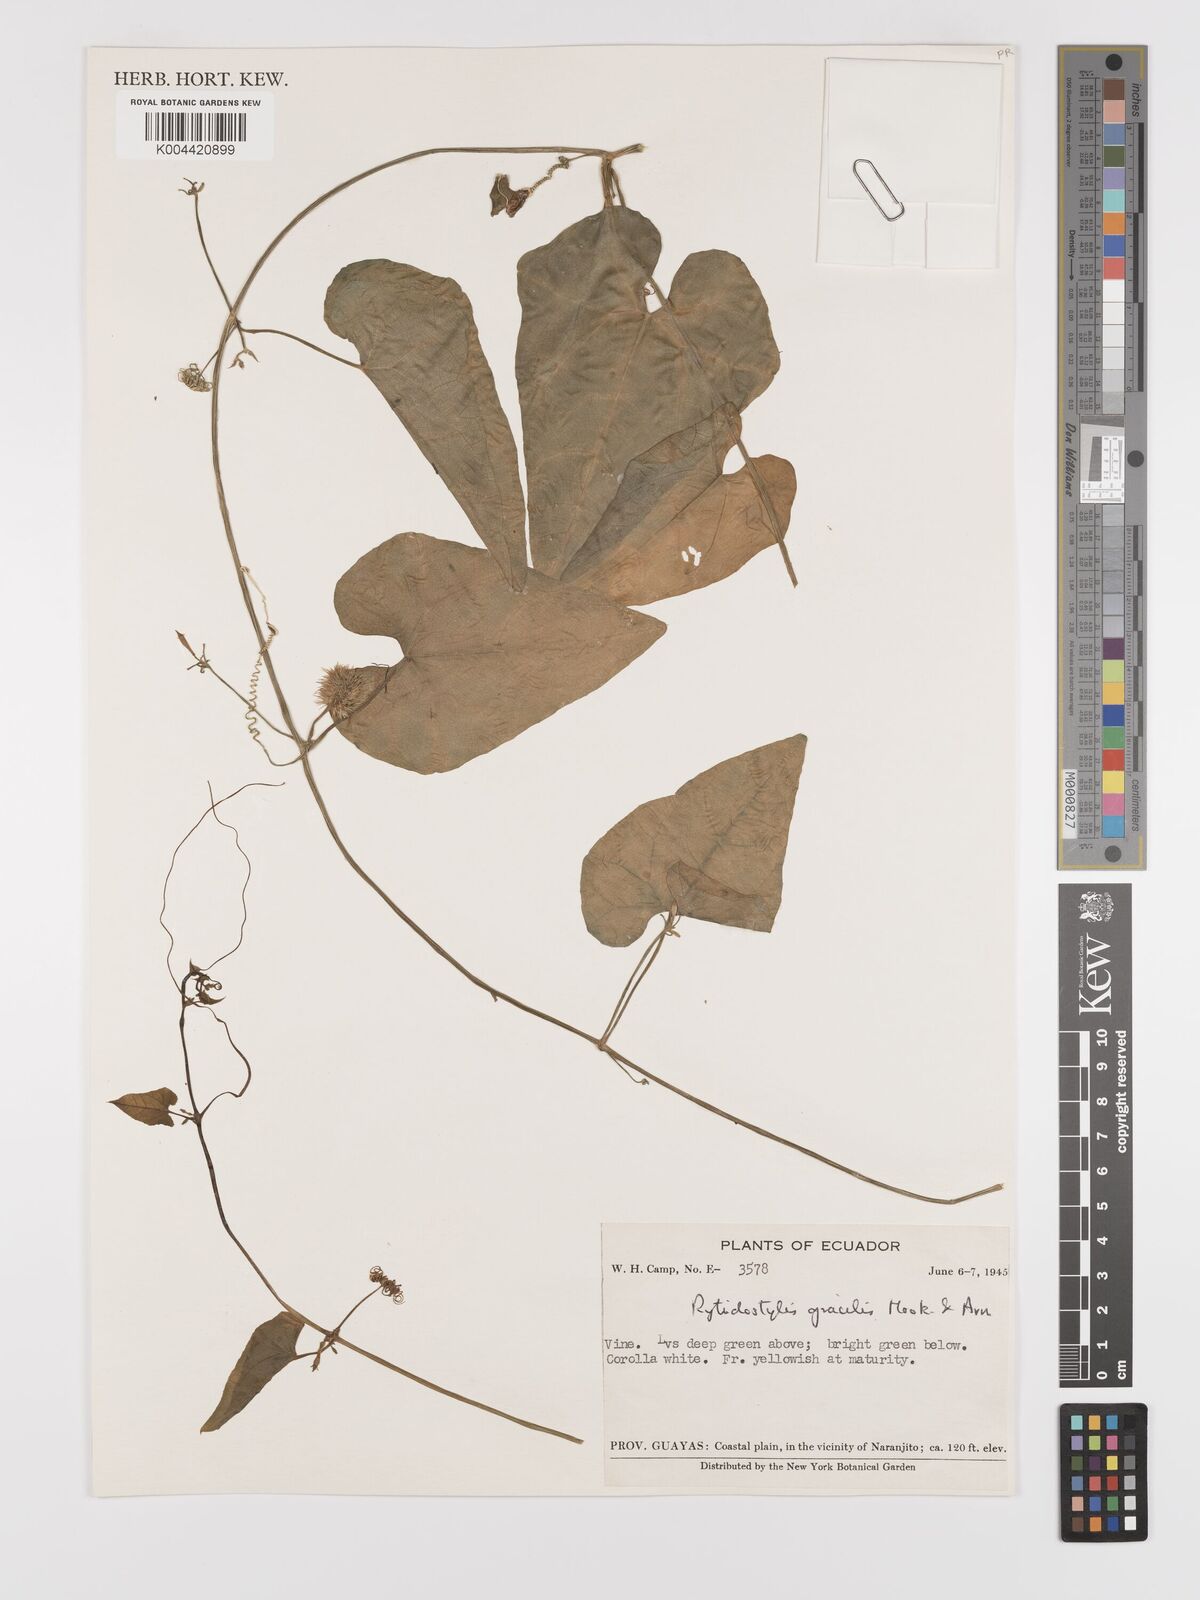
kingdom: Plantae
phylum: Tracheophyta
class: Magnoliopsida
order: Cucurbitales
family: Cucurbitaceae
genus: Cyclanthera
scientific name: Cyclanthera filiformis
